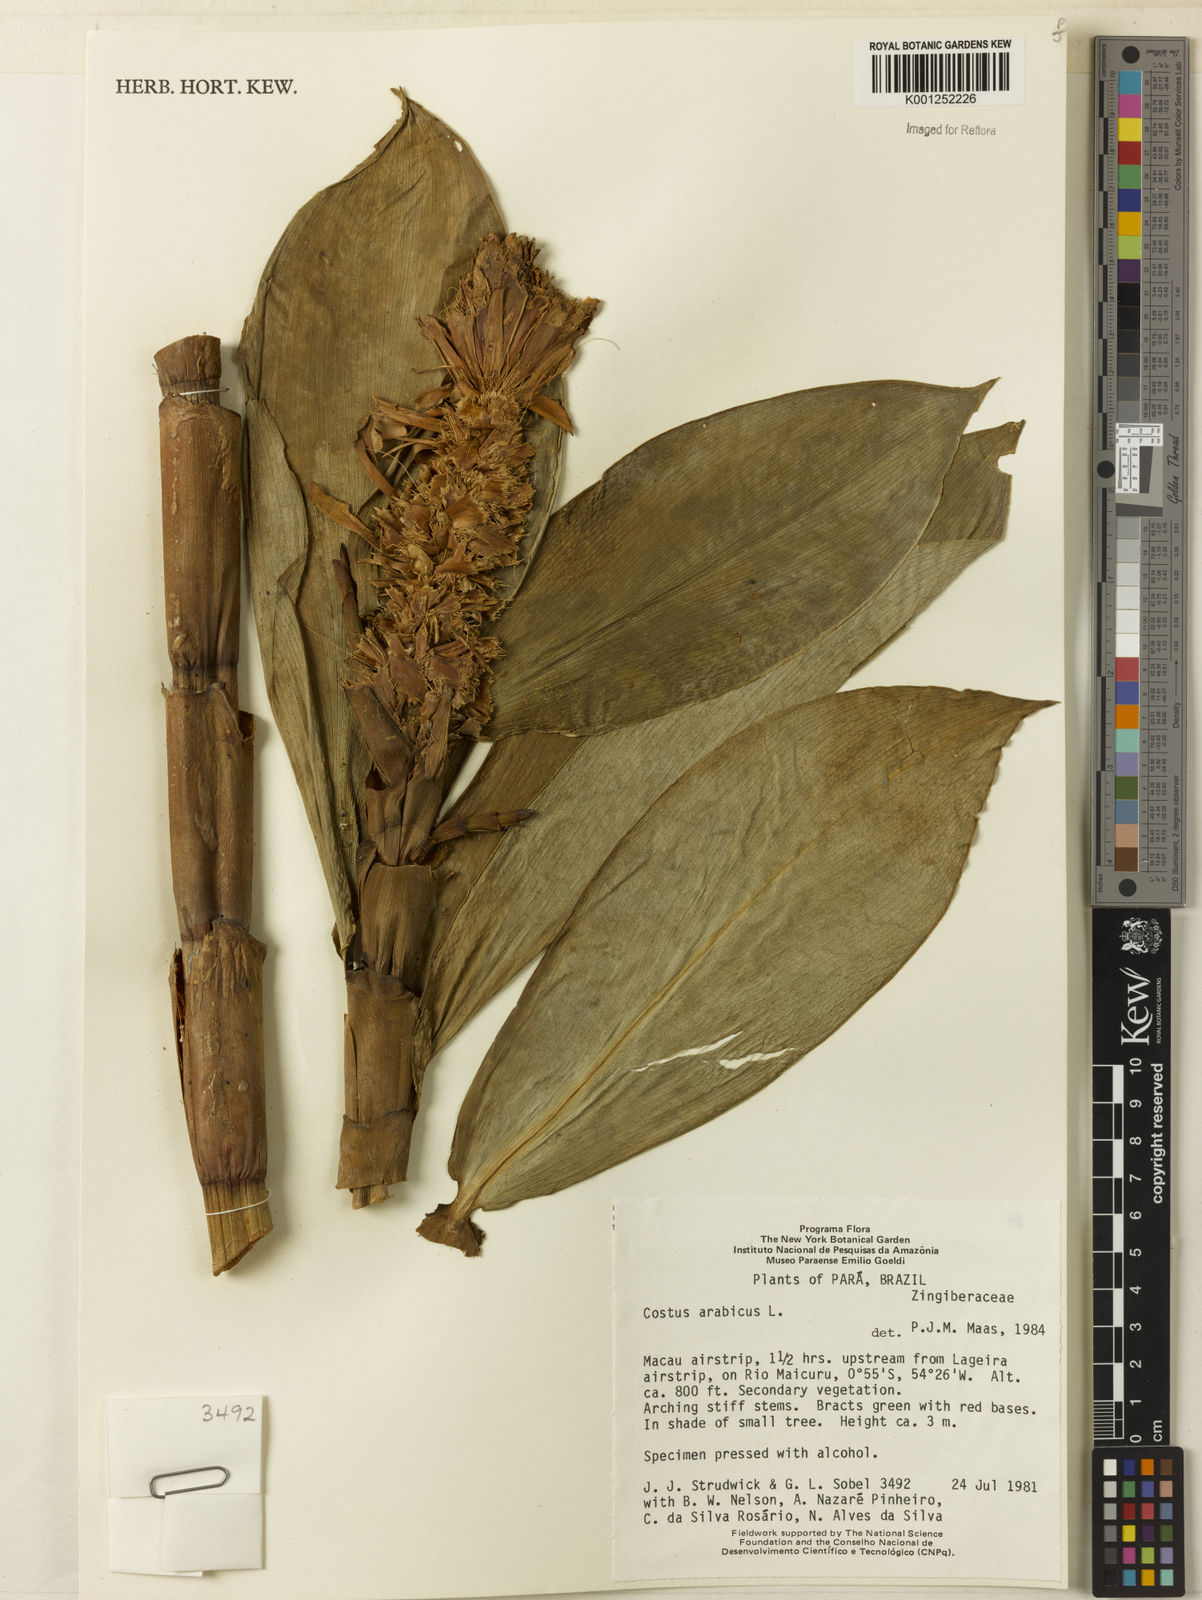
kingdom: Plantae
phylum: Tracheophyta
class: Liliopsida
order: Zingiberales
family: Costaceae
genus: Costus
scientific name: Costus arabicus
